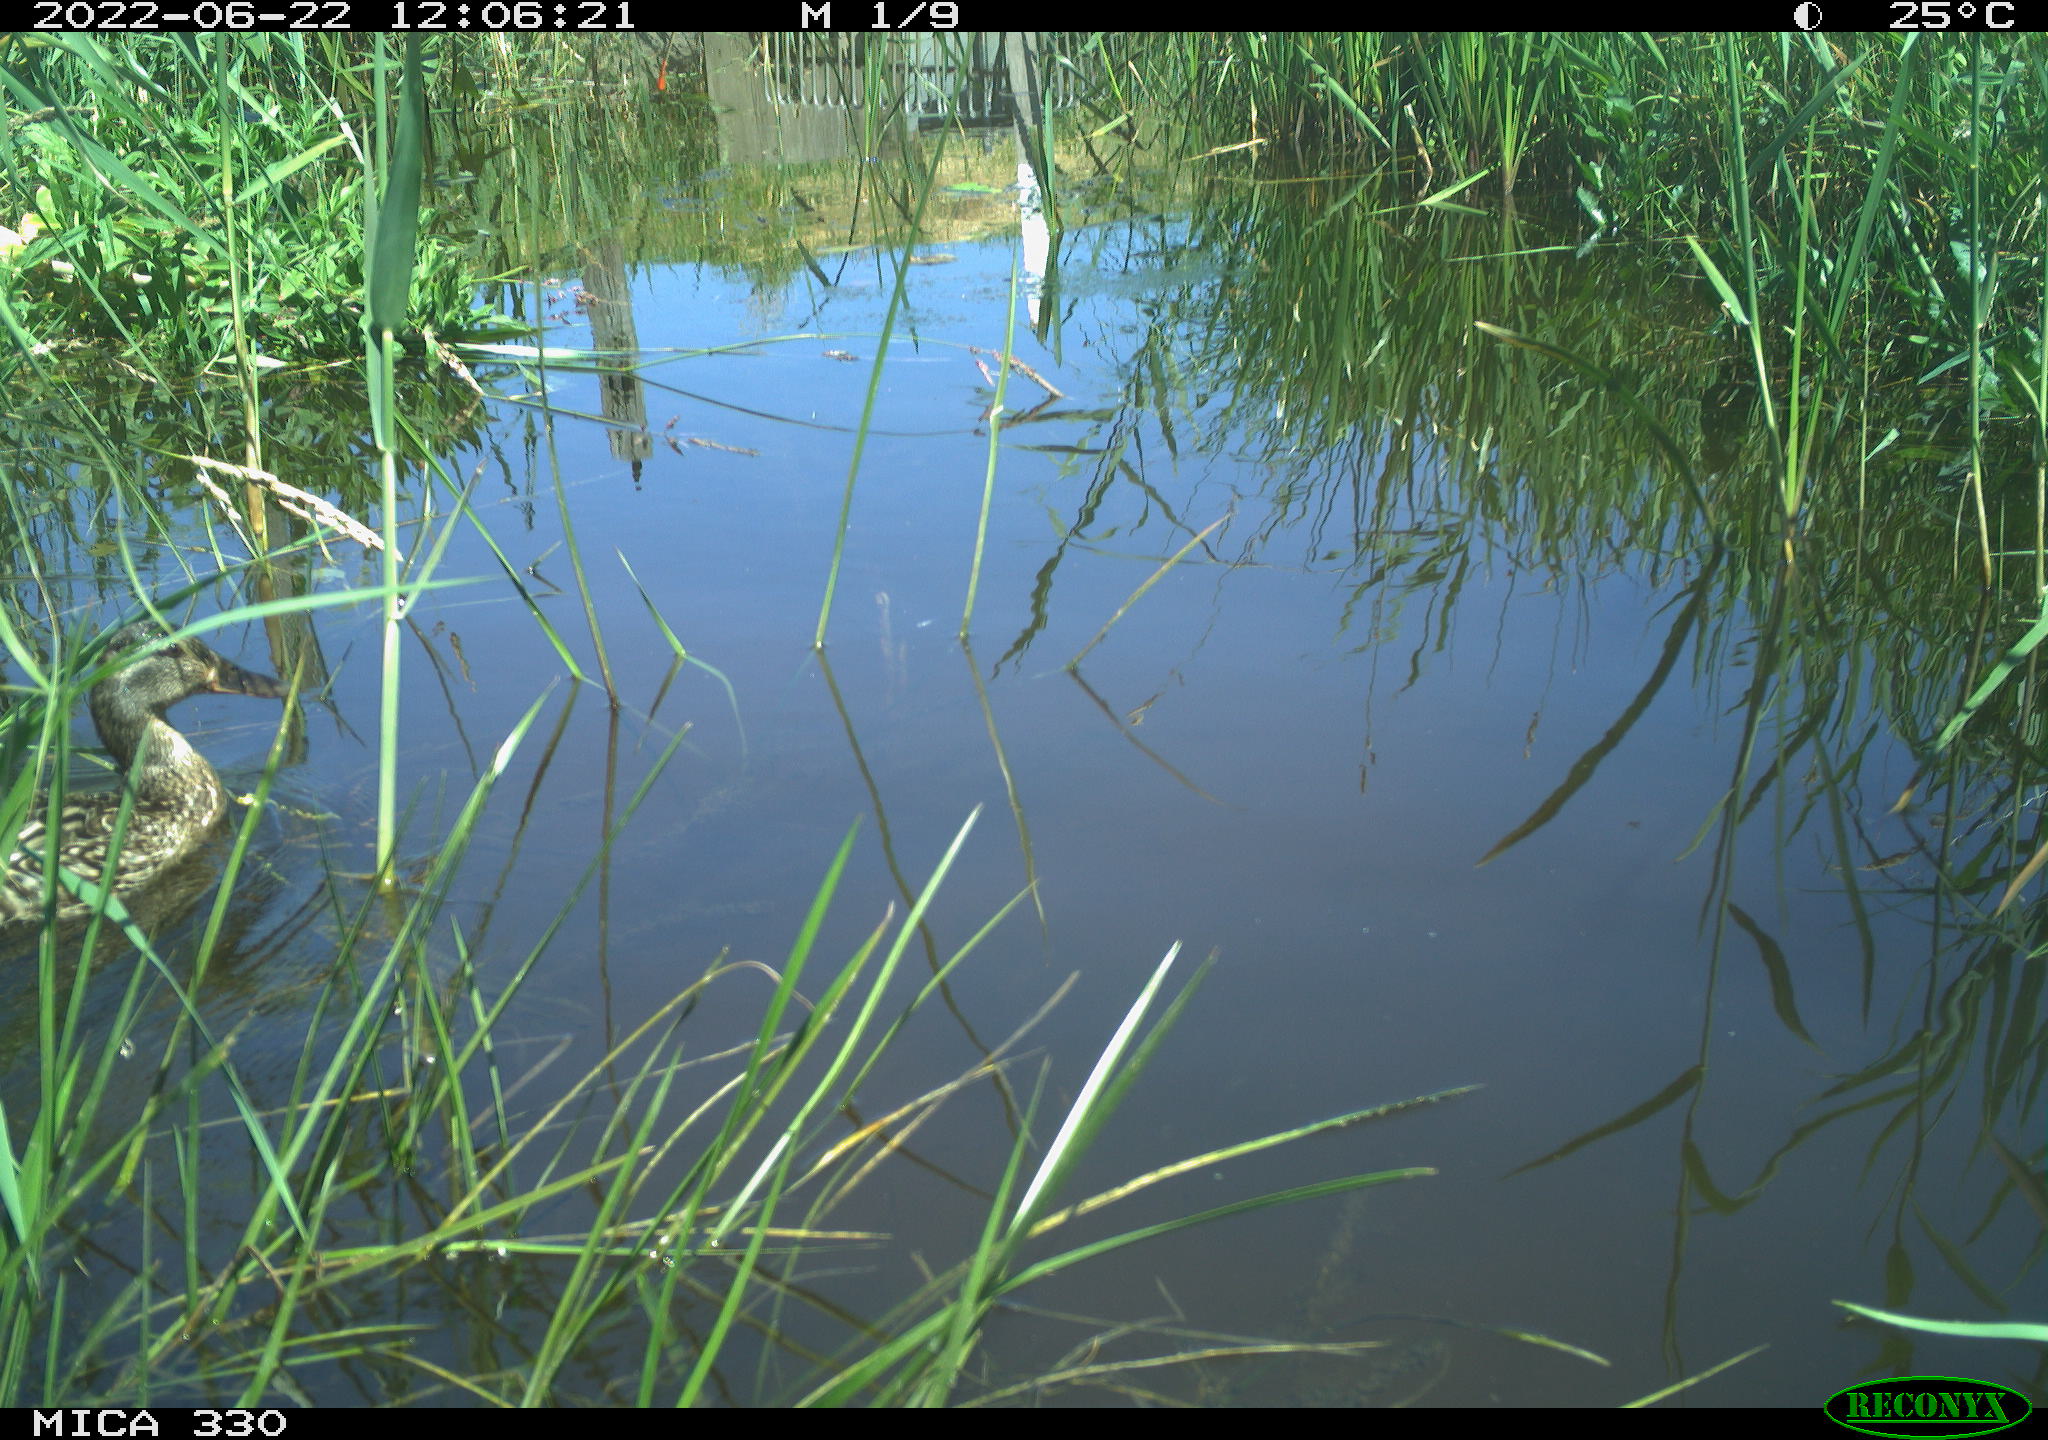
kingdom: Animalia
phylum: Chordata
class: Aves
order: Anseriformes
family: Anatidae
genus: Anas
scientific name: Anas platyrhynchos
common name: Mallard
